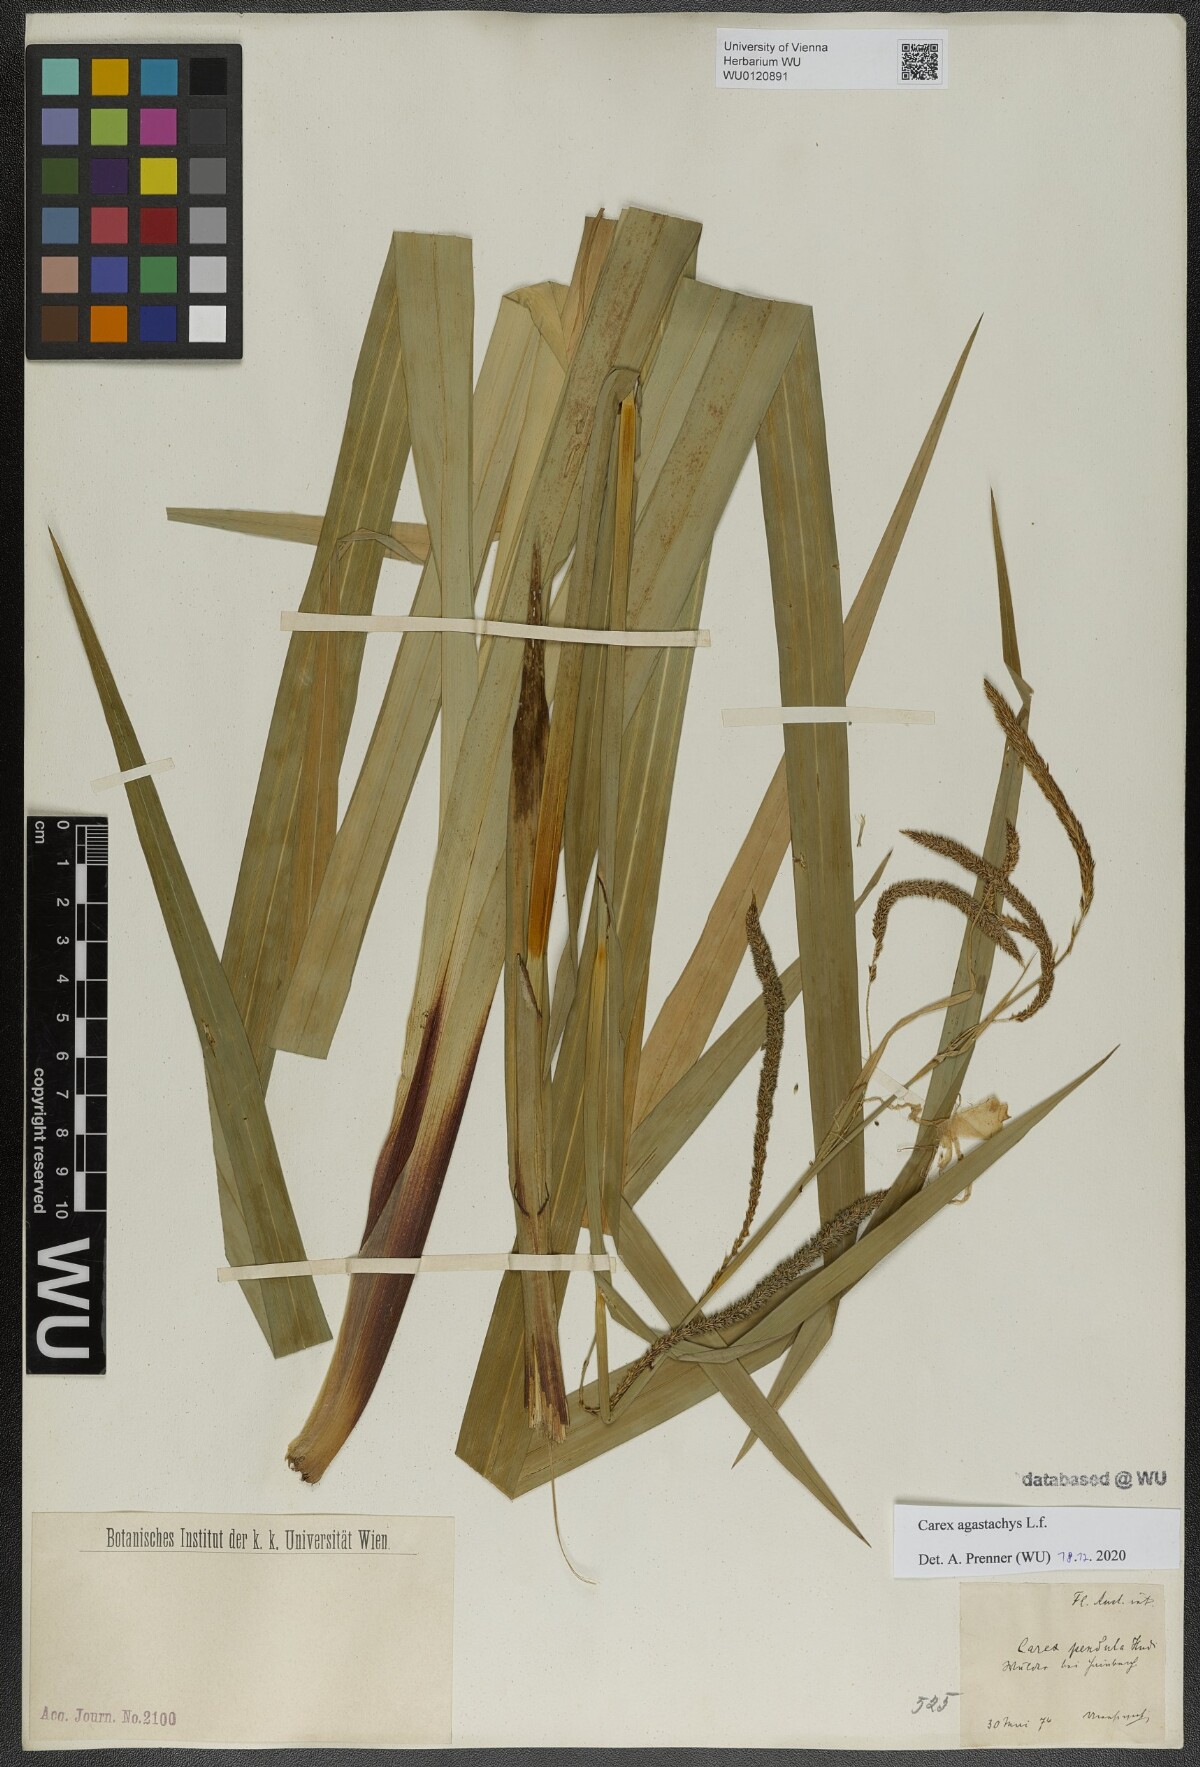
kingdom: Plantae
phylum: Tracheophyta
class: Liliopsida
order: Poales
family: Cyperaceae
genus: Carex
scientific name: Carex agastachys
